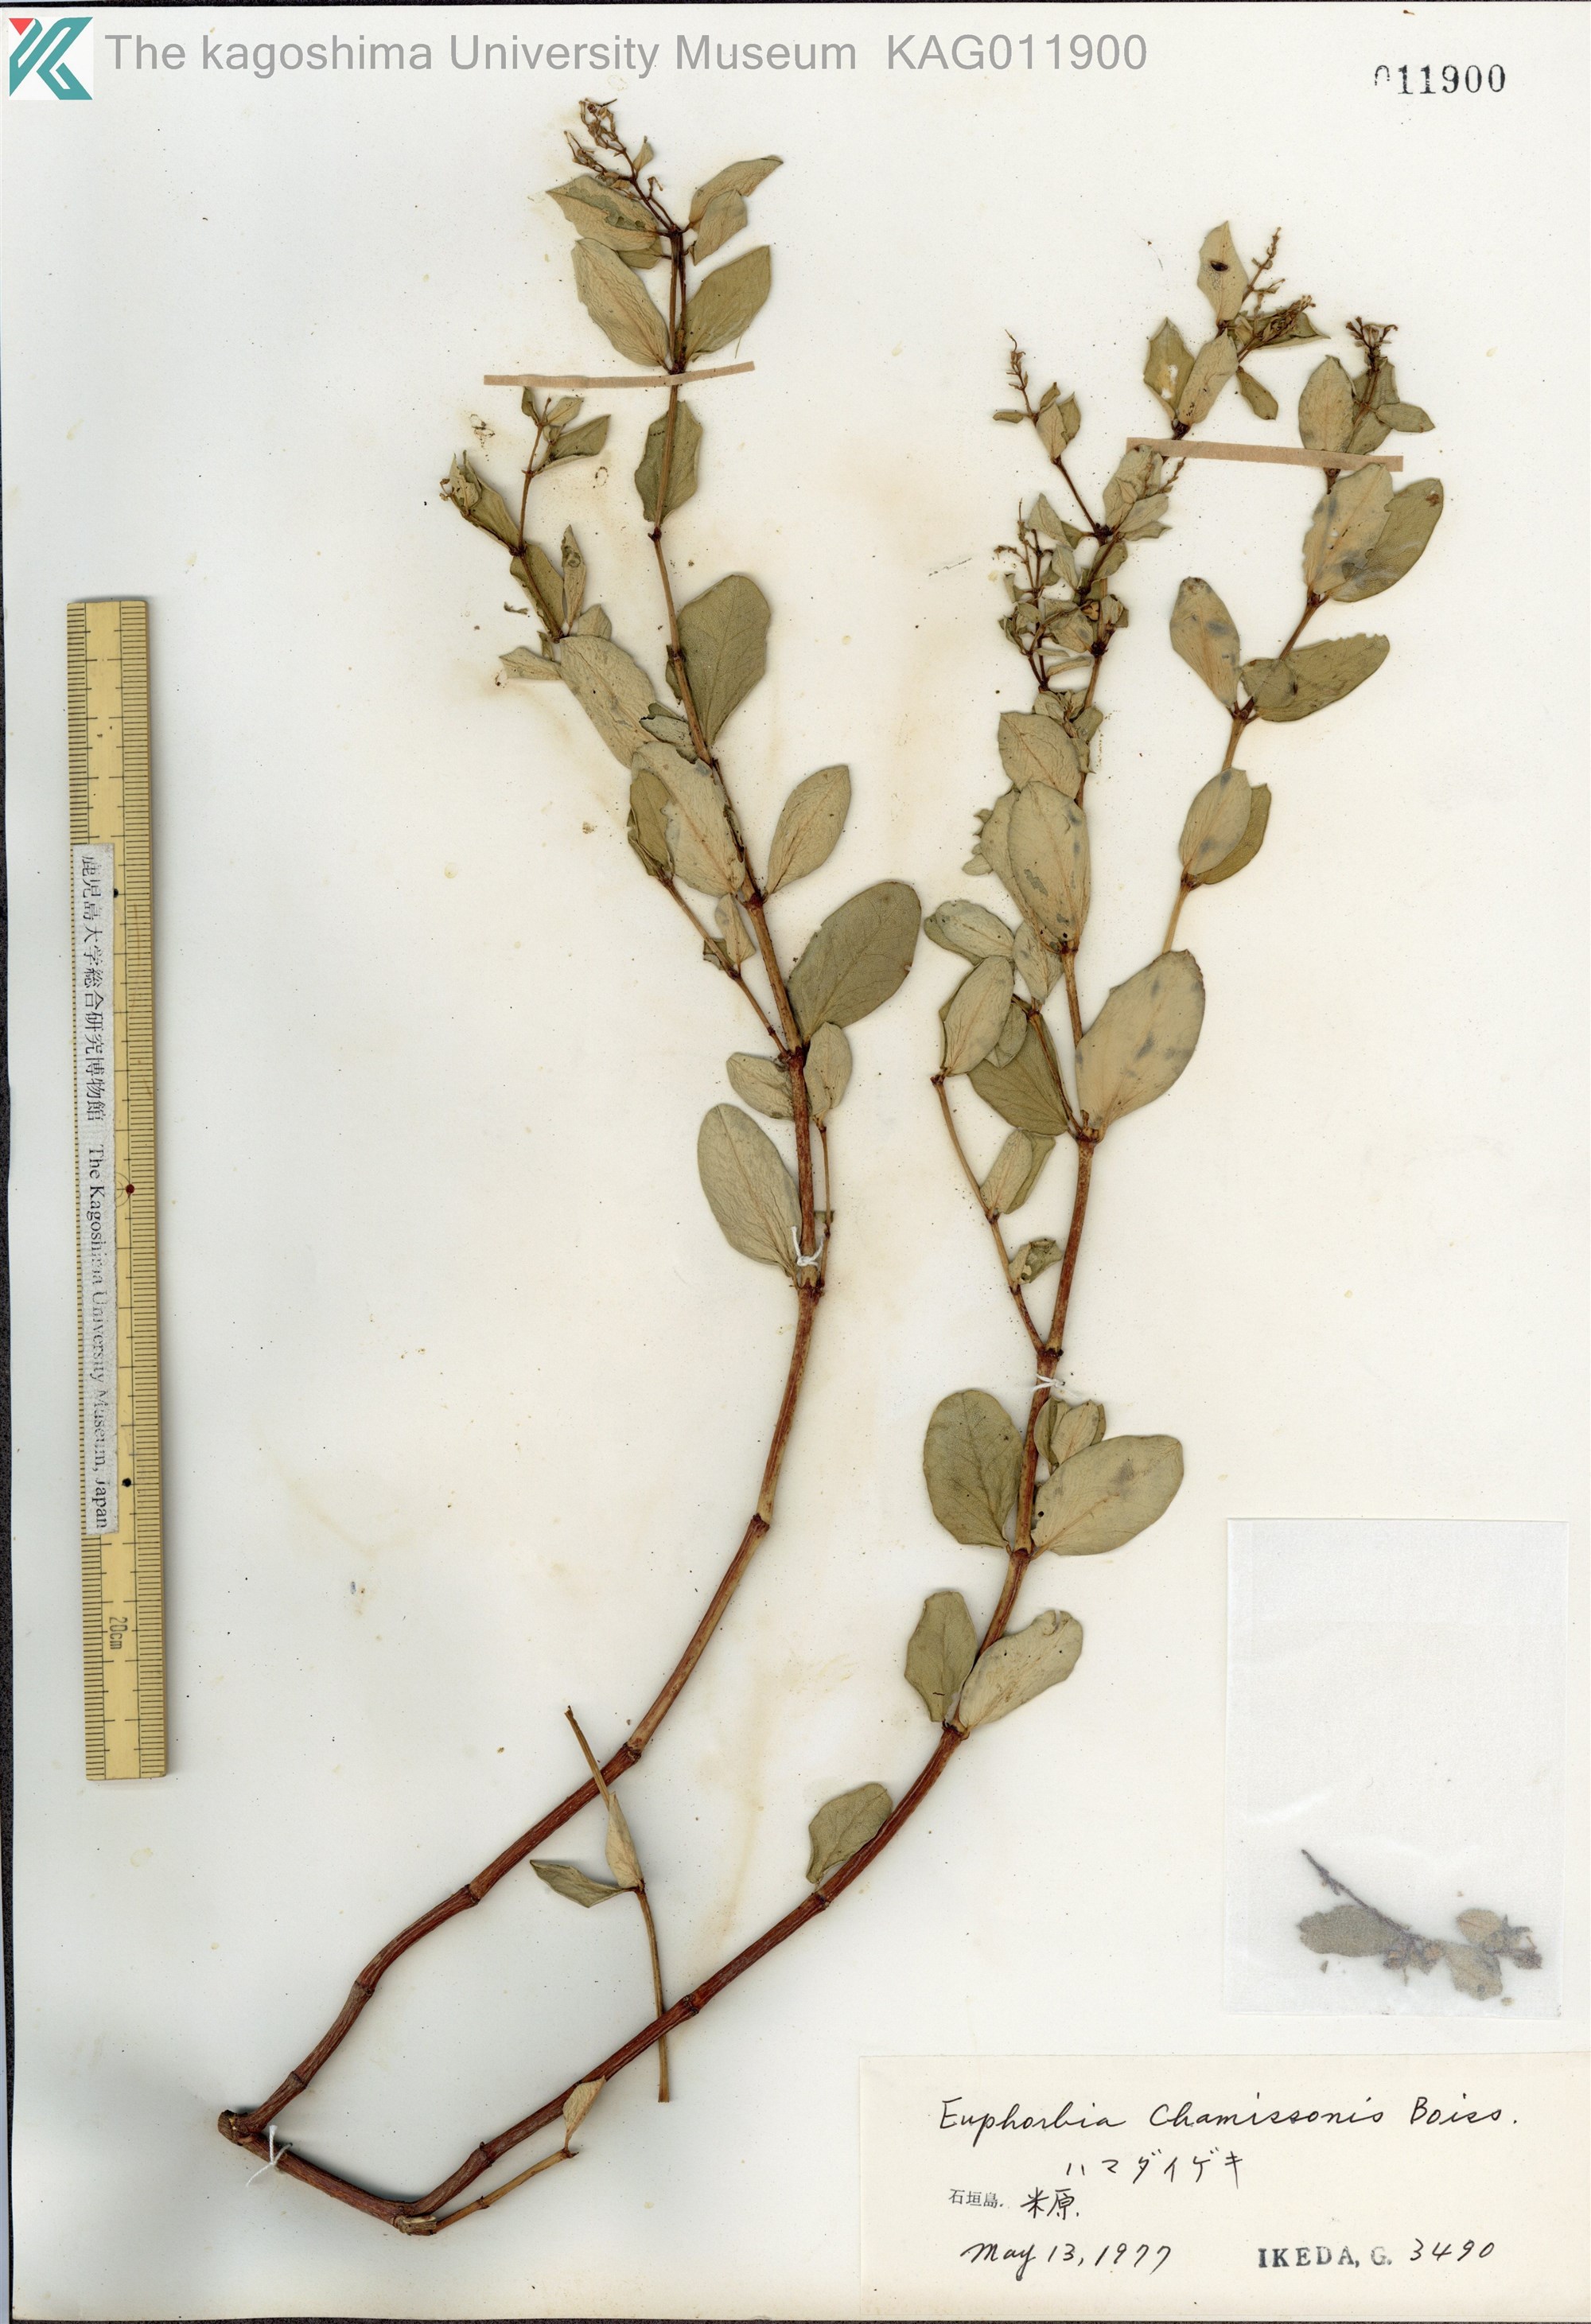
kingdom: Plantae
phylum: Tracheophyta
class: Magnoliopsida
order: Malpighiales
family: Euphorbiaceae
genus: Euphorbia
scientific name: Euphorbia chamissonis
